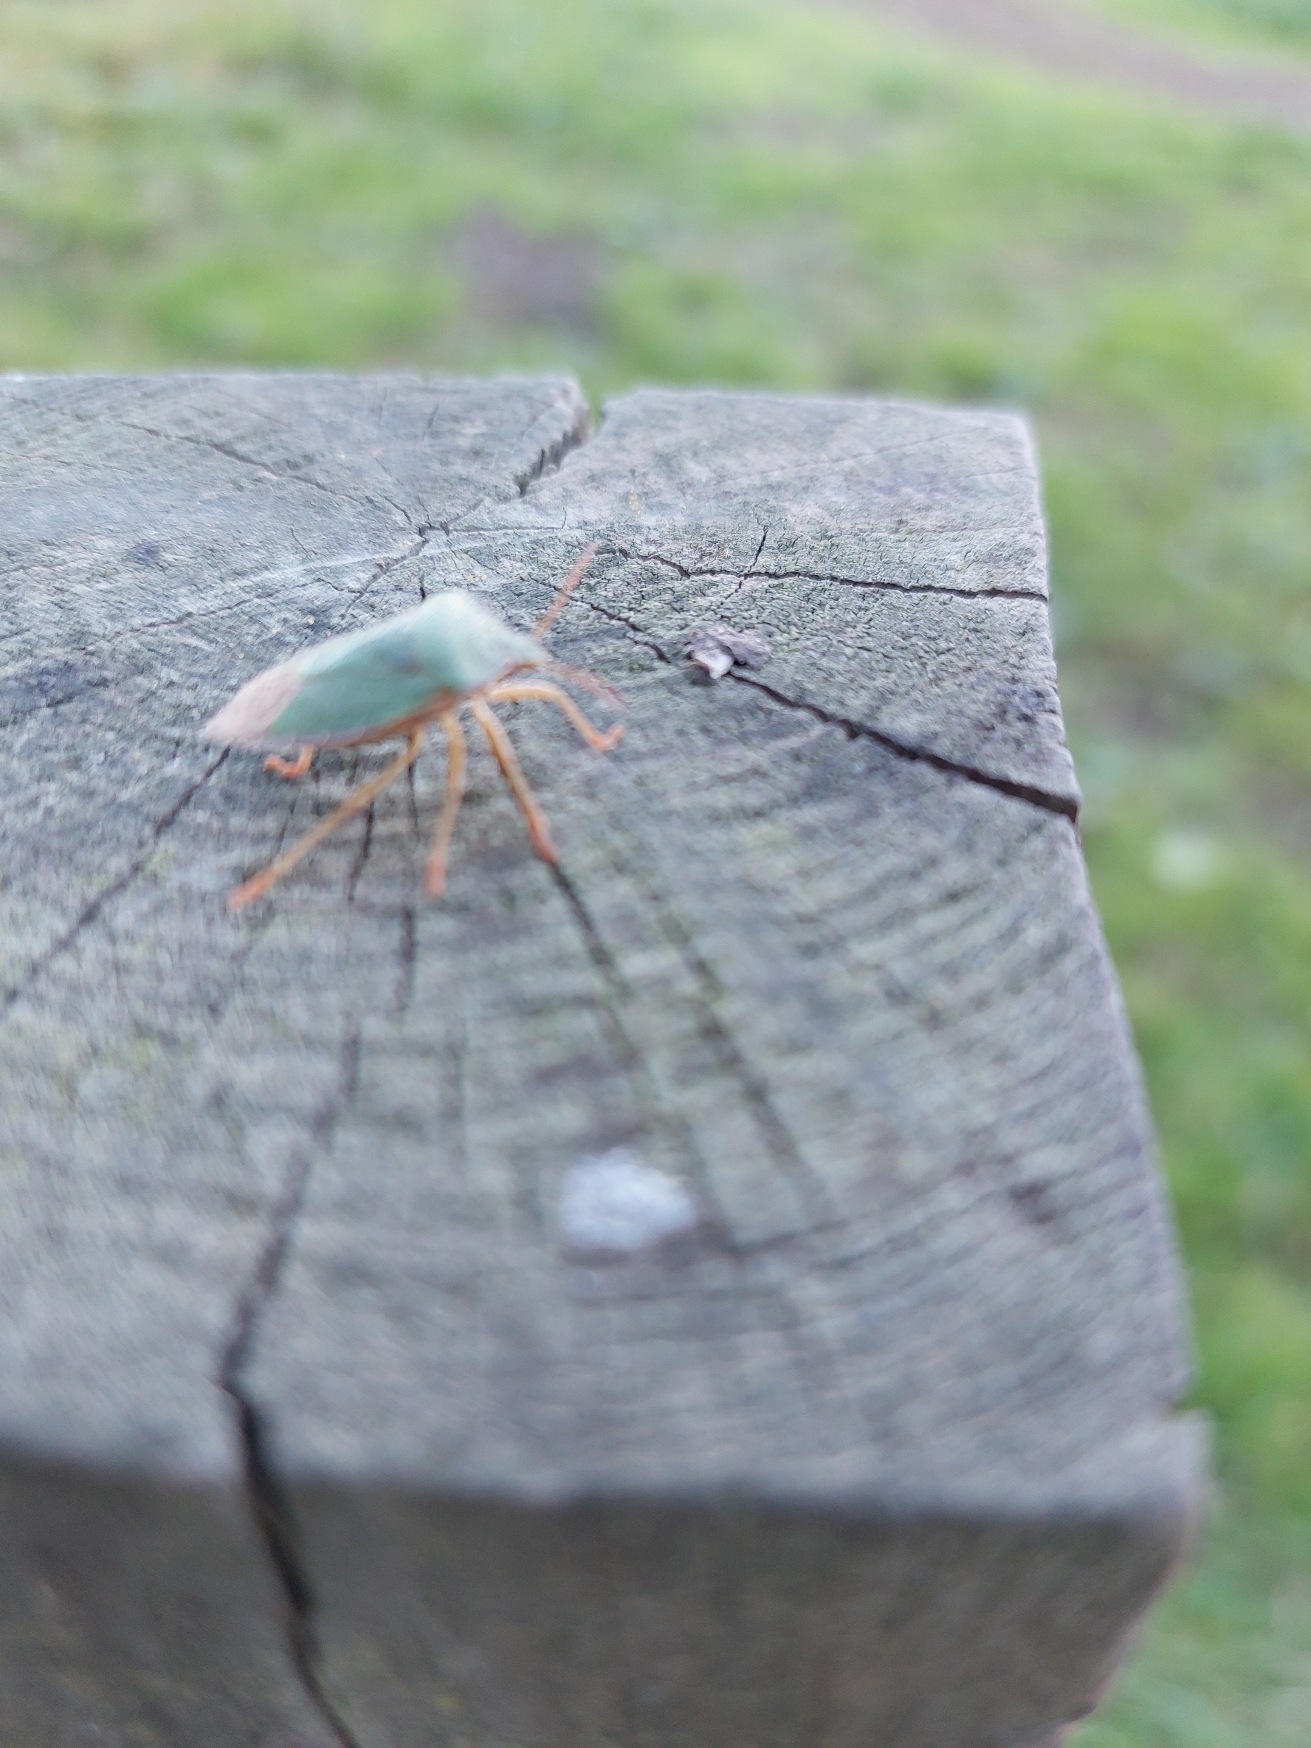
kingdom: Animalia
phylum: Arthropoda
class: Insecta
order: Hemiptera
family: Pentatomidae
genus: Palomena
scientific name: Palomena prasina
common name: Grøn bredtæge
